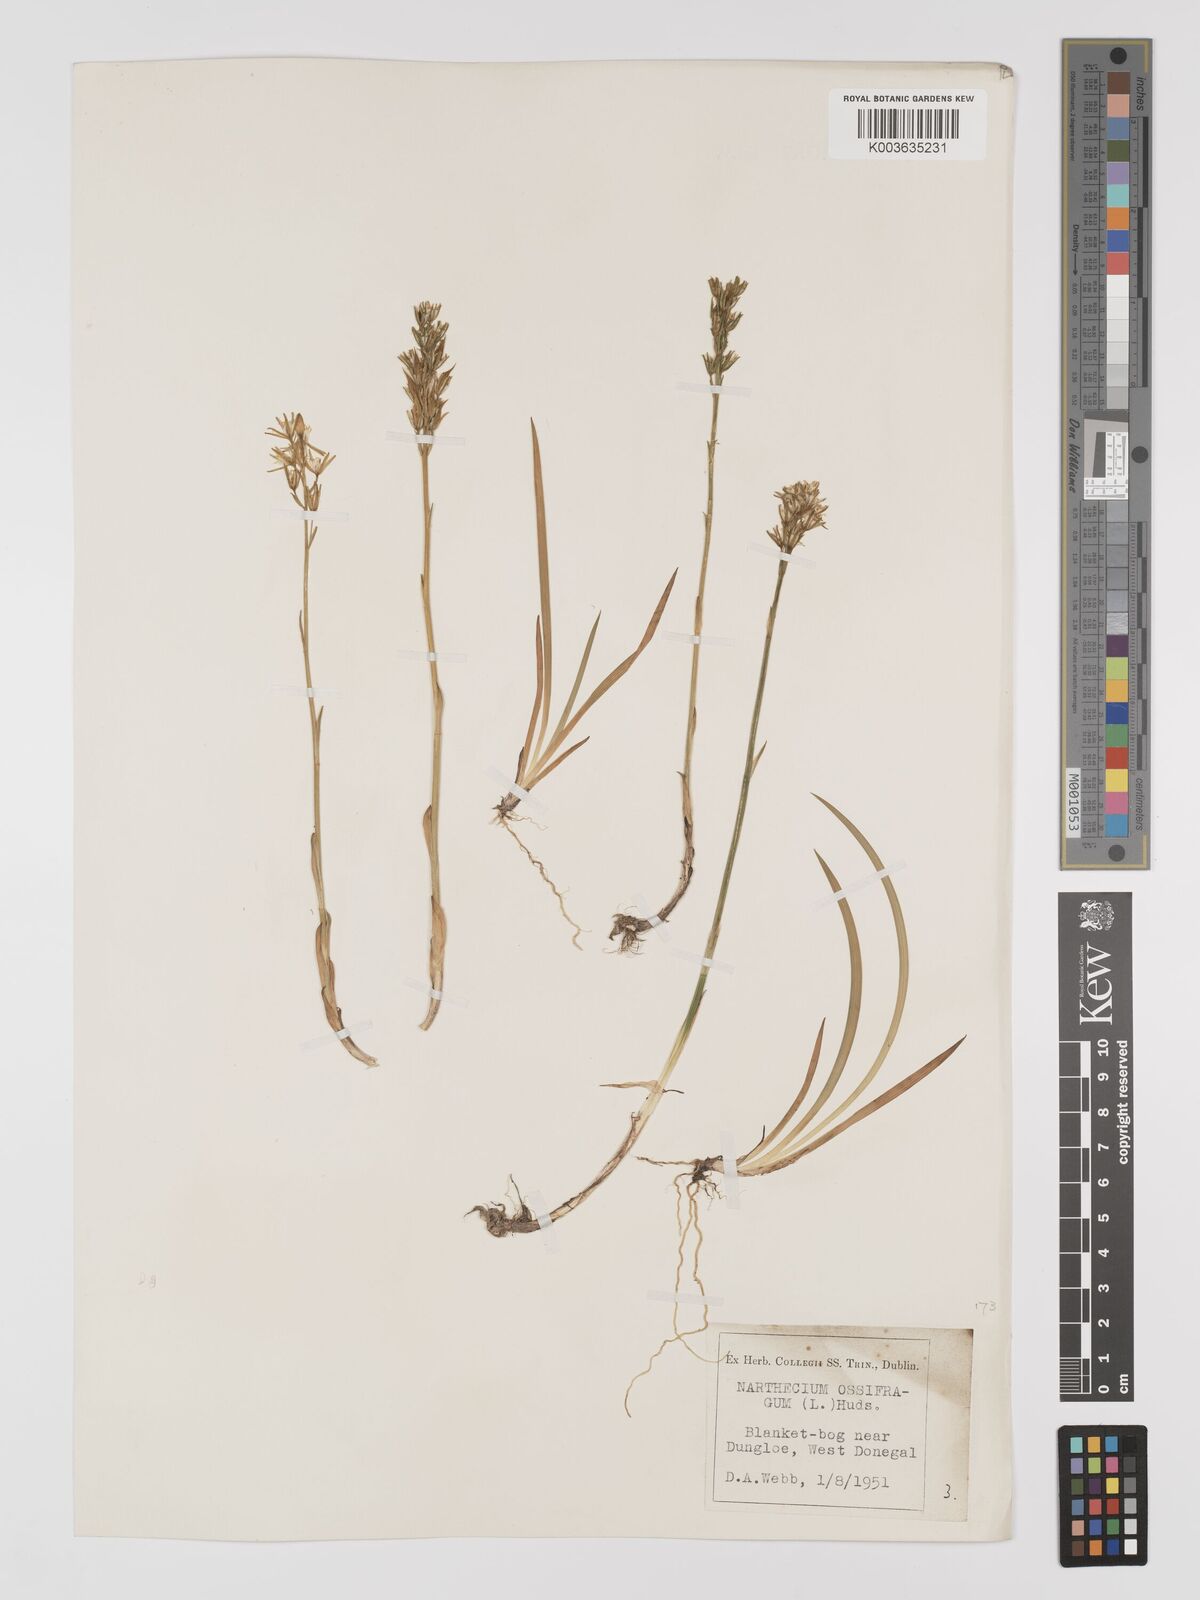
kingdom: Plantae
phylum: Tracheophyta
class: Liliopsida
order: Dioscoreales
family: Nartheciaceae
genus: Narthecium
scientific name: Narthecium ossifragum
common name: Bog asphodel
